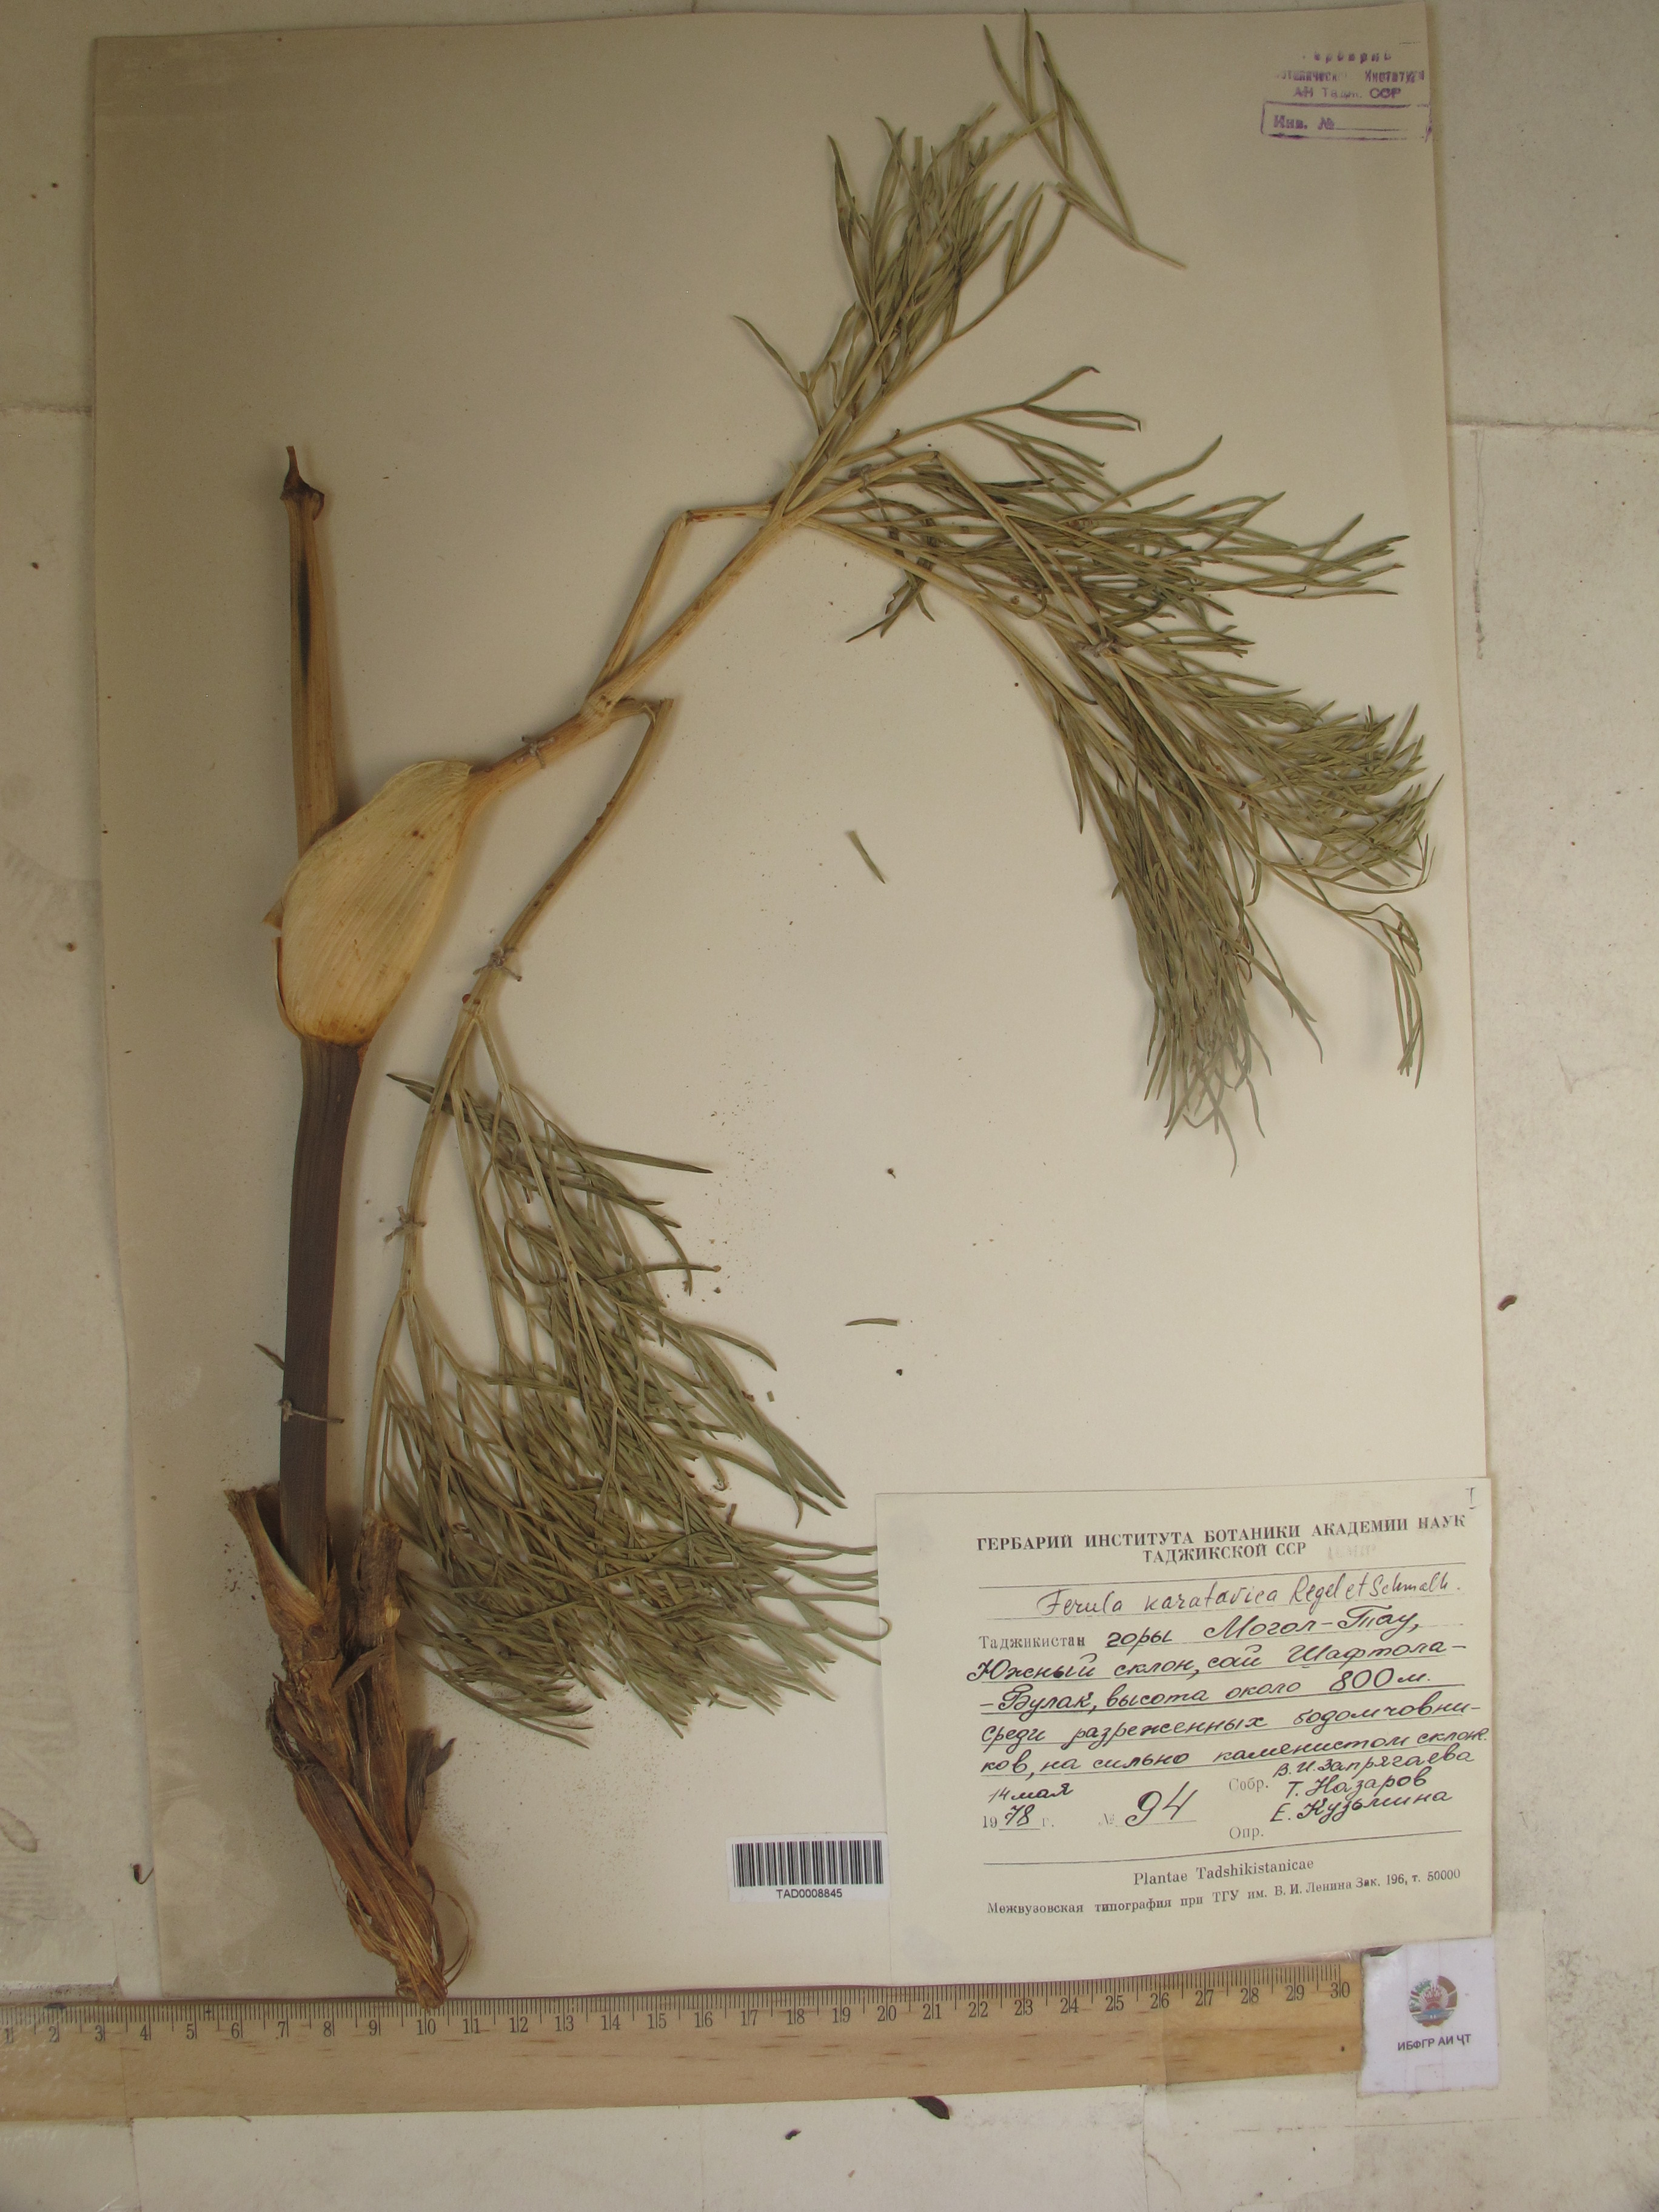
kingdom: Plantae
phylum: Tracheophyta
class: Magnoliopsida
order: Apiales
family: Apiaceae
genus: Ferula
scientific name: Ferula karatavica
